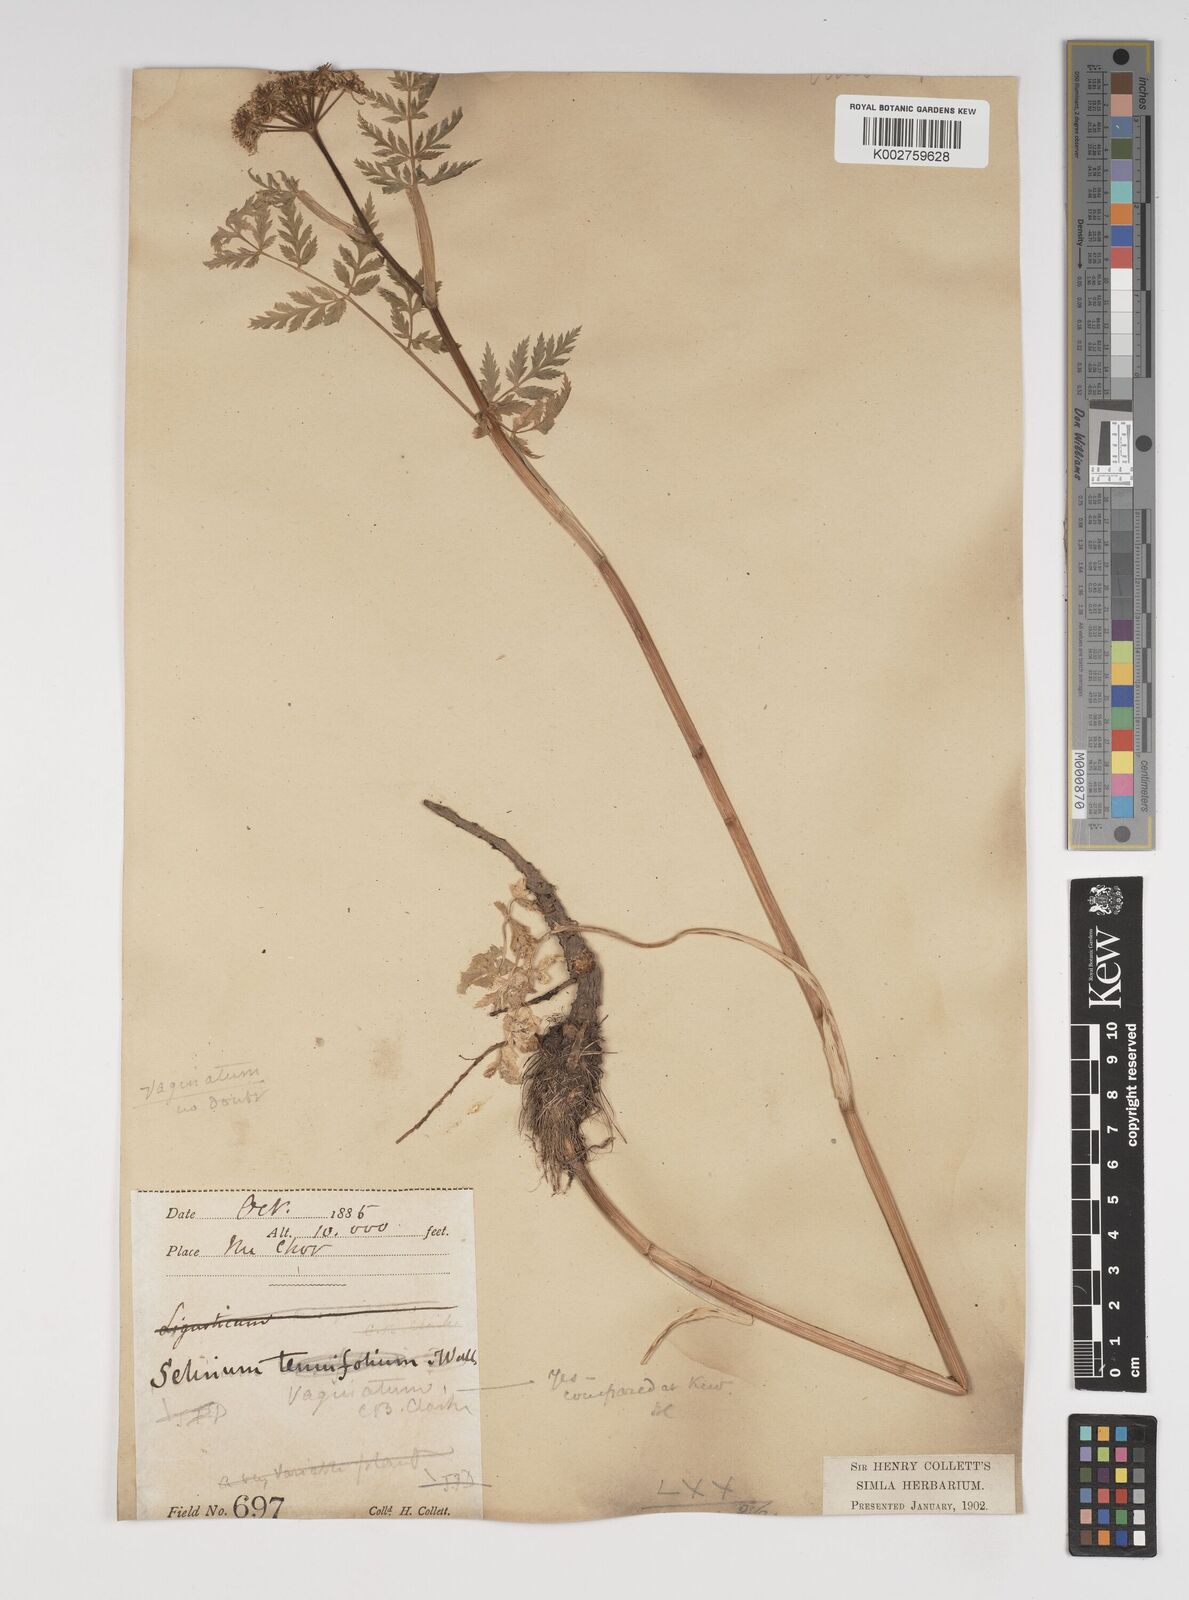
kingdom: Plantae
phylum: Tracheophyta
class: Magnoliopsida
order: Apiales
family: Apiaceae
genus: Selinum
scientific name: Selinum vaginatum
